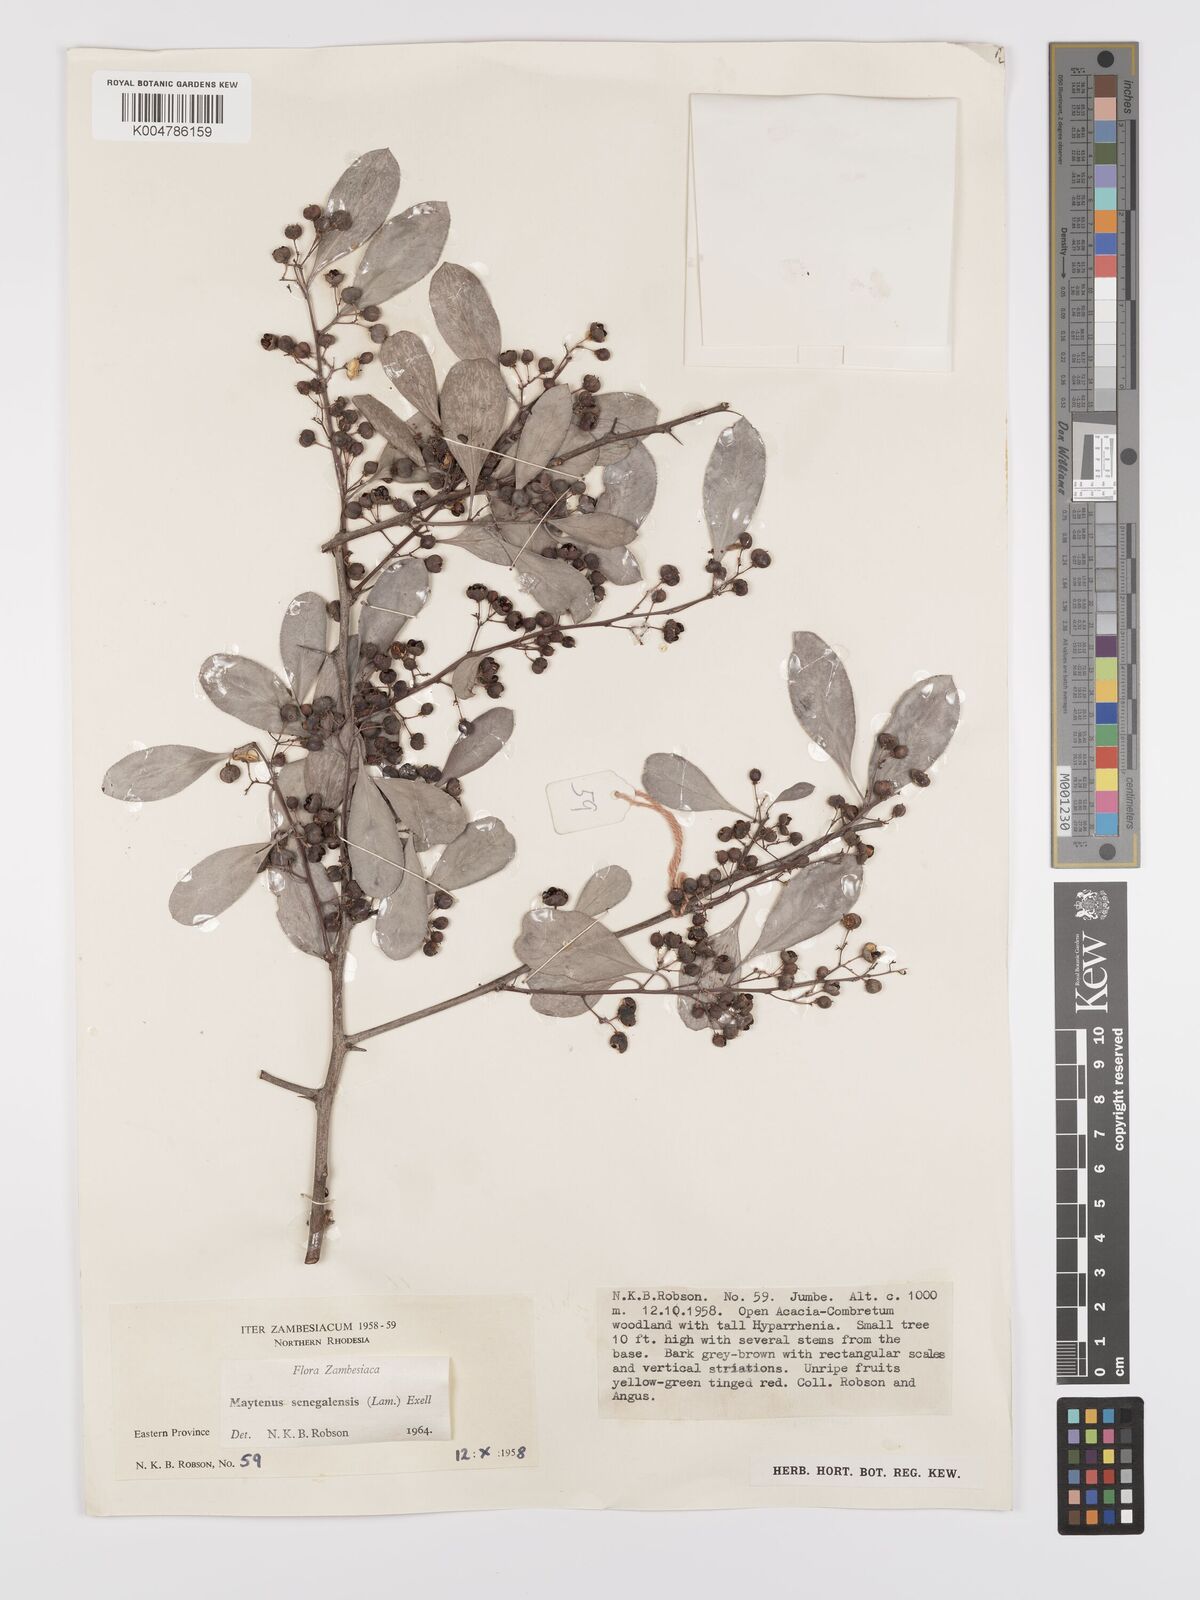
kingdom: Plantae
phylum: Tracheophyta
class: Magnoliopsida
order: Celastrales
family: Celastraceae
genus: Gymnosporia
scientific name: Gymnosporia senegalensis
